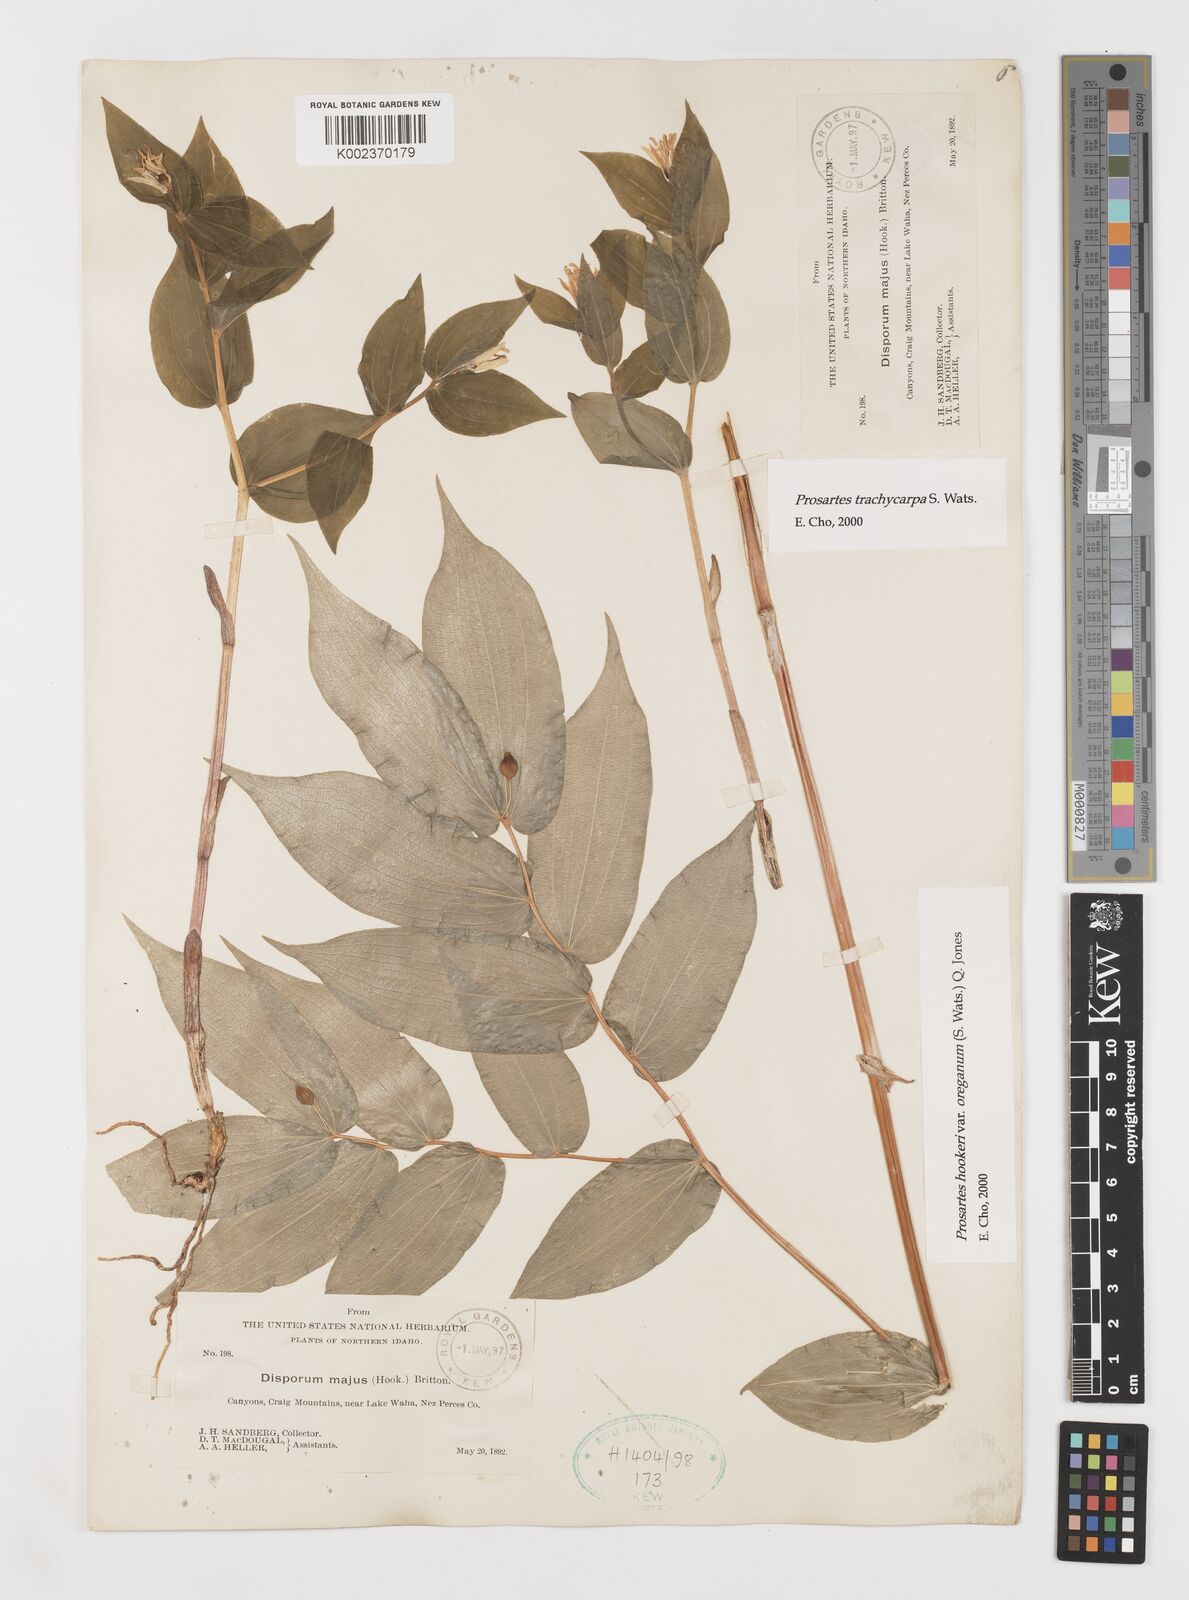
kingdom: Plantae
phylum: Tracheophyta
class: Liliopsida
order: Liliales
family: Liliaceae
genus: Prosartes
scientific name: Prosartes trachycarpa
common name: Rough-fruit fairy-bells
